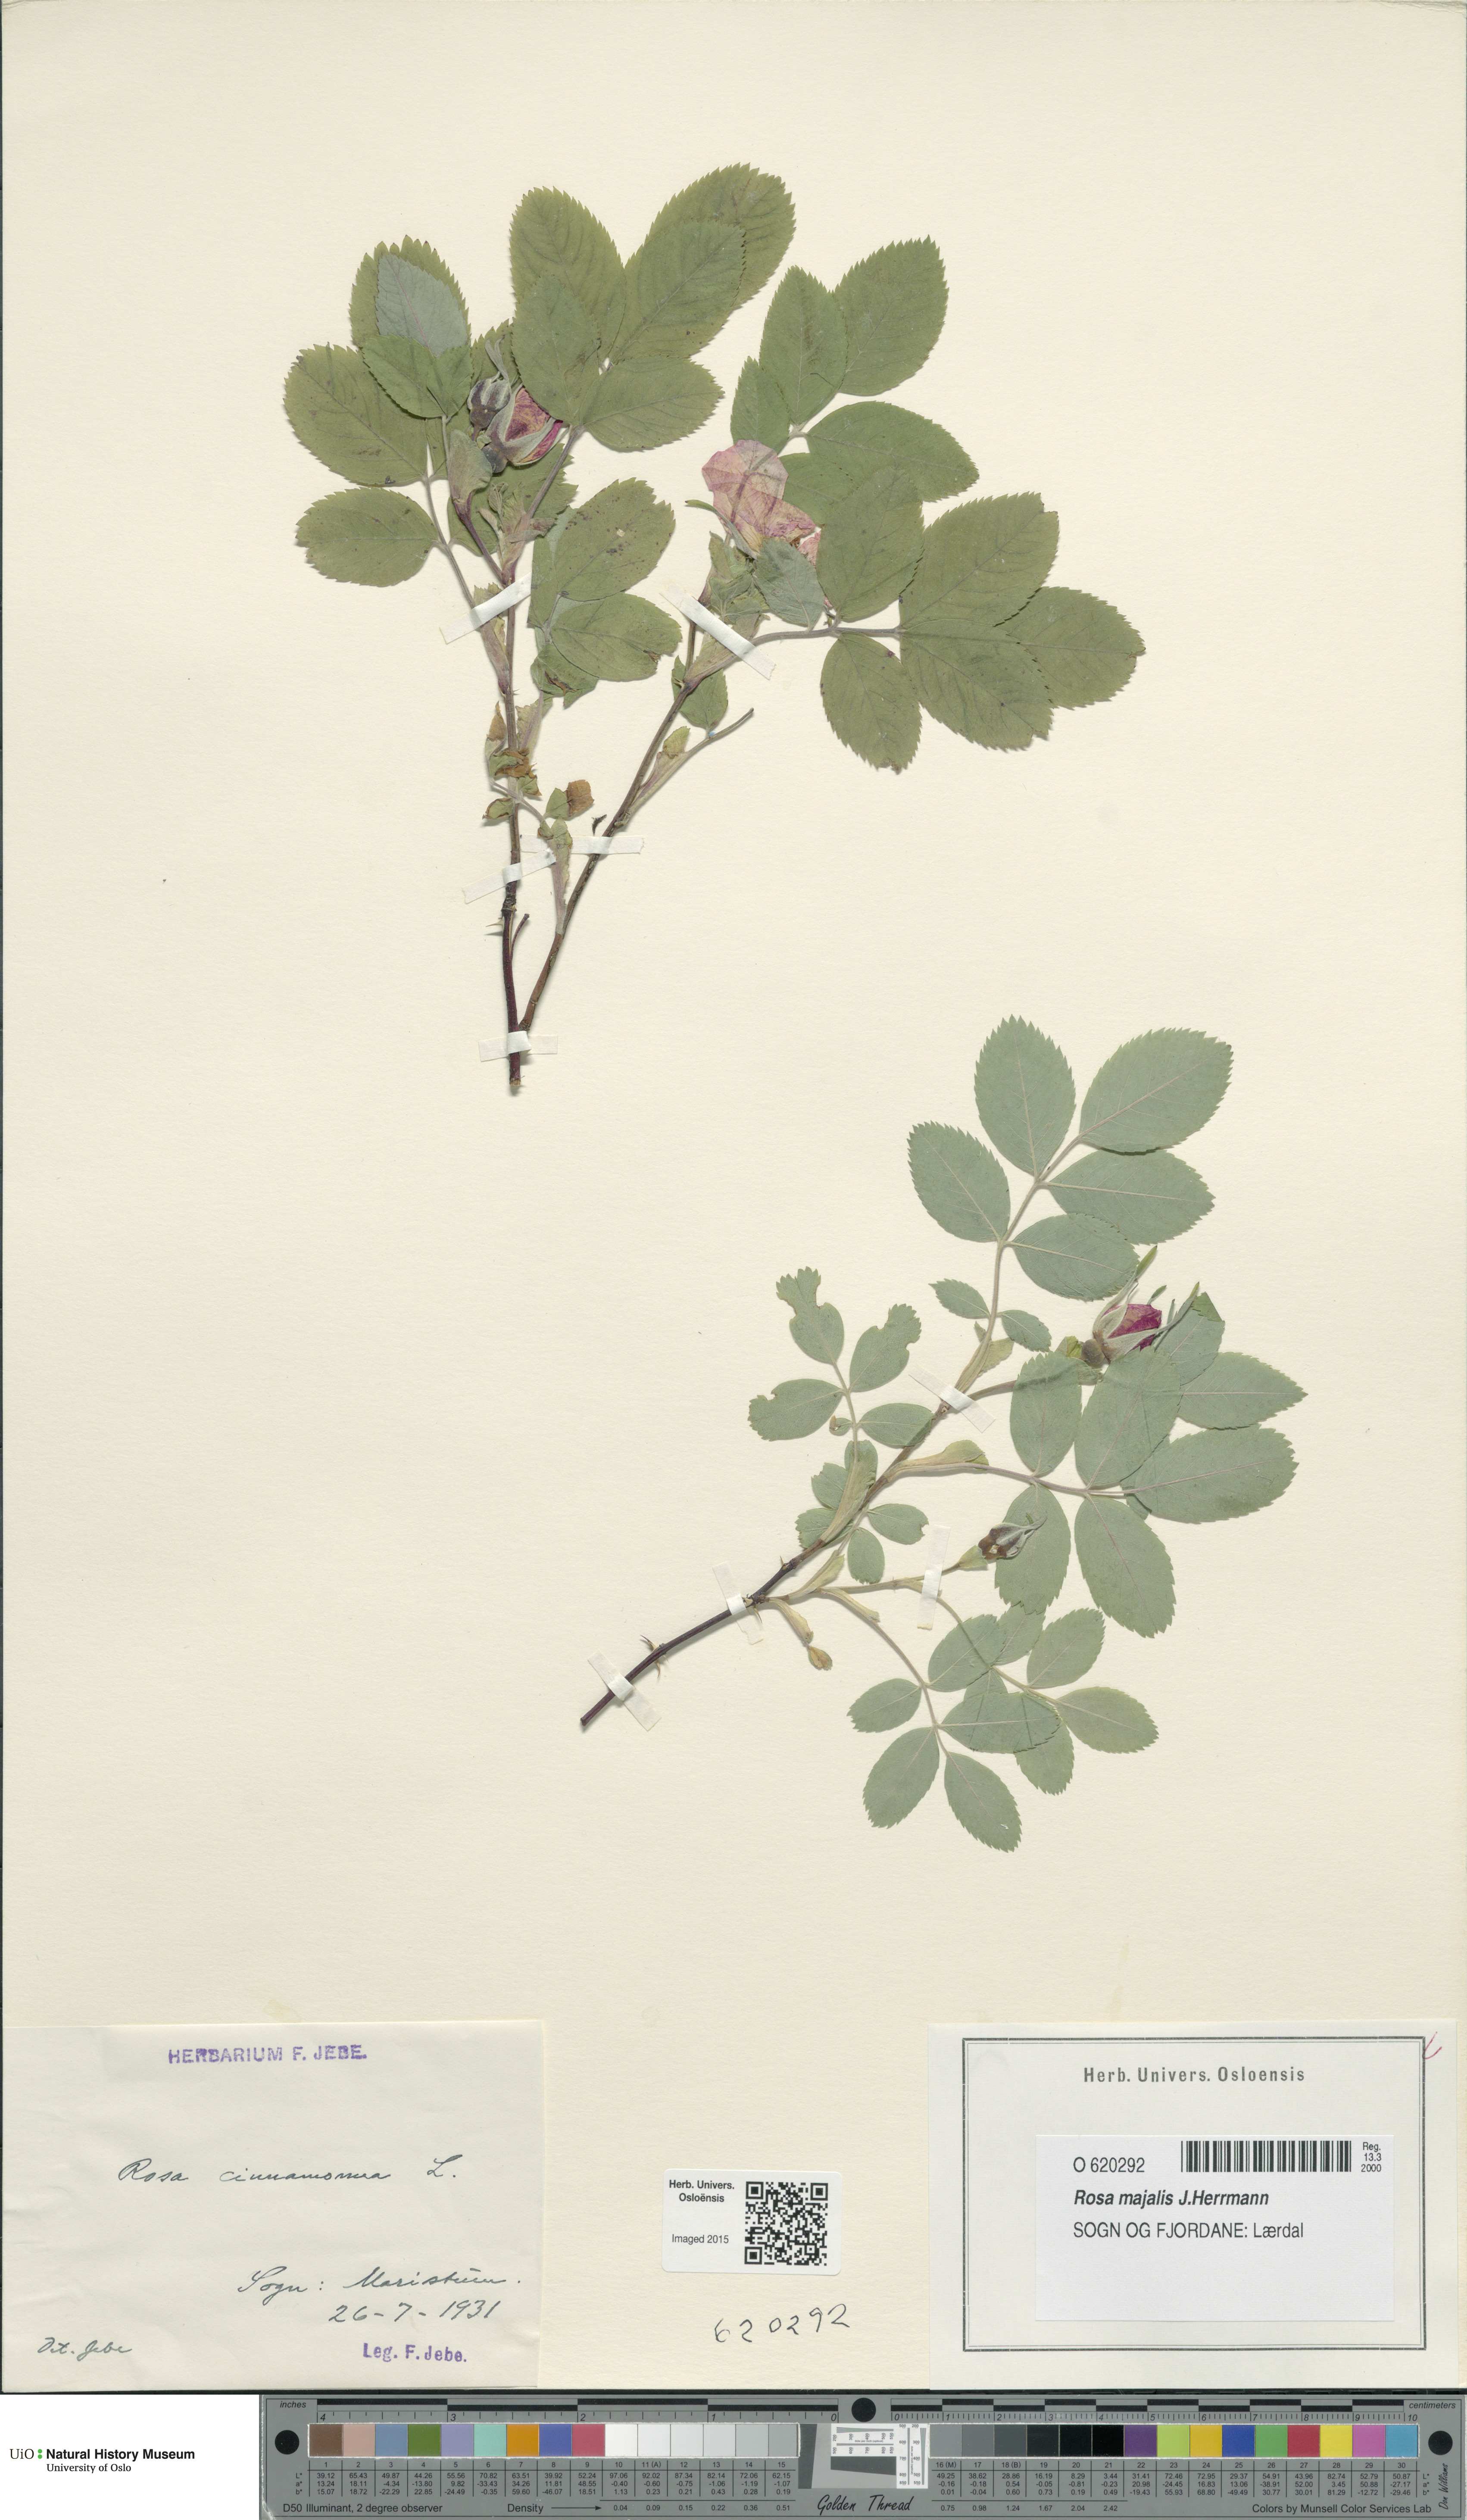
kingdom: Plantae
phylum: Tracheophyta
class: Magnoliopsida
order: Rosales
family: Rosaceae
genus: Rosa
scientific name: Rosa pendulina
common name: Alpine rose
